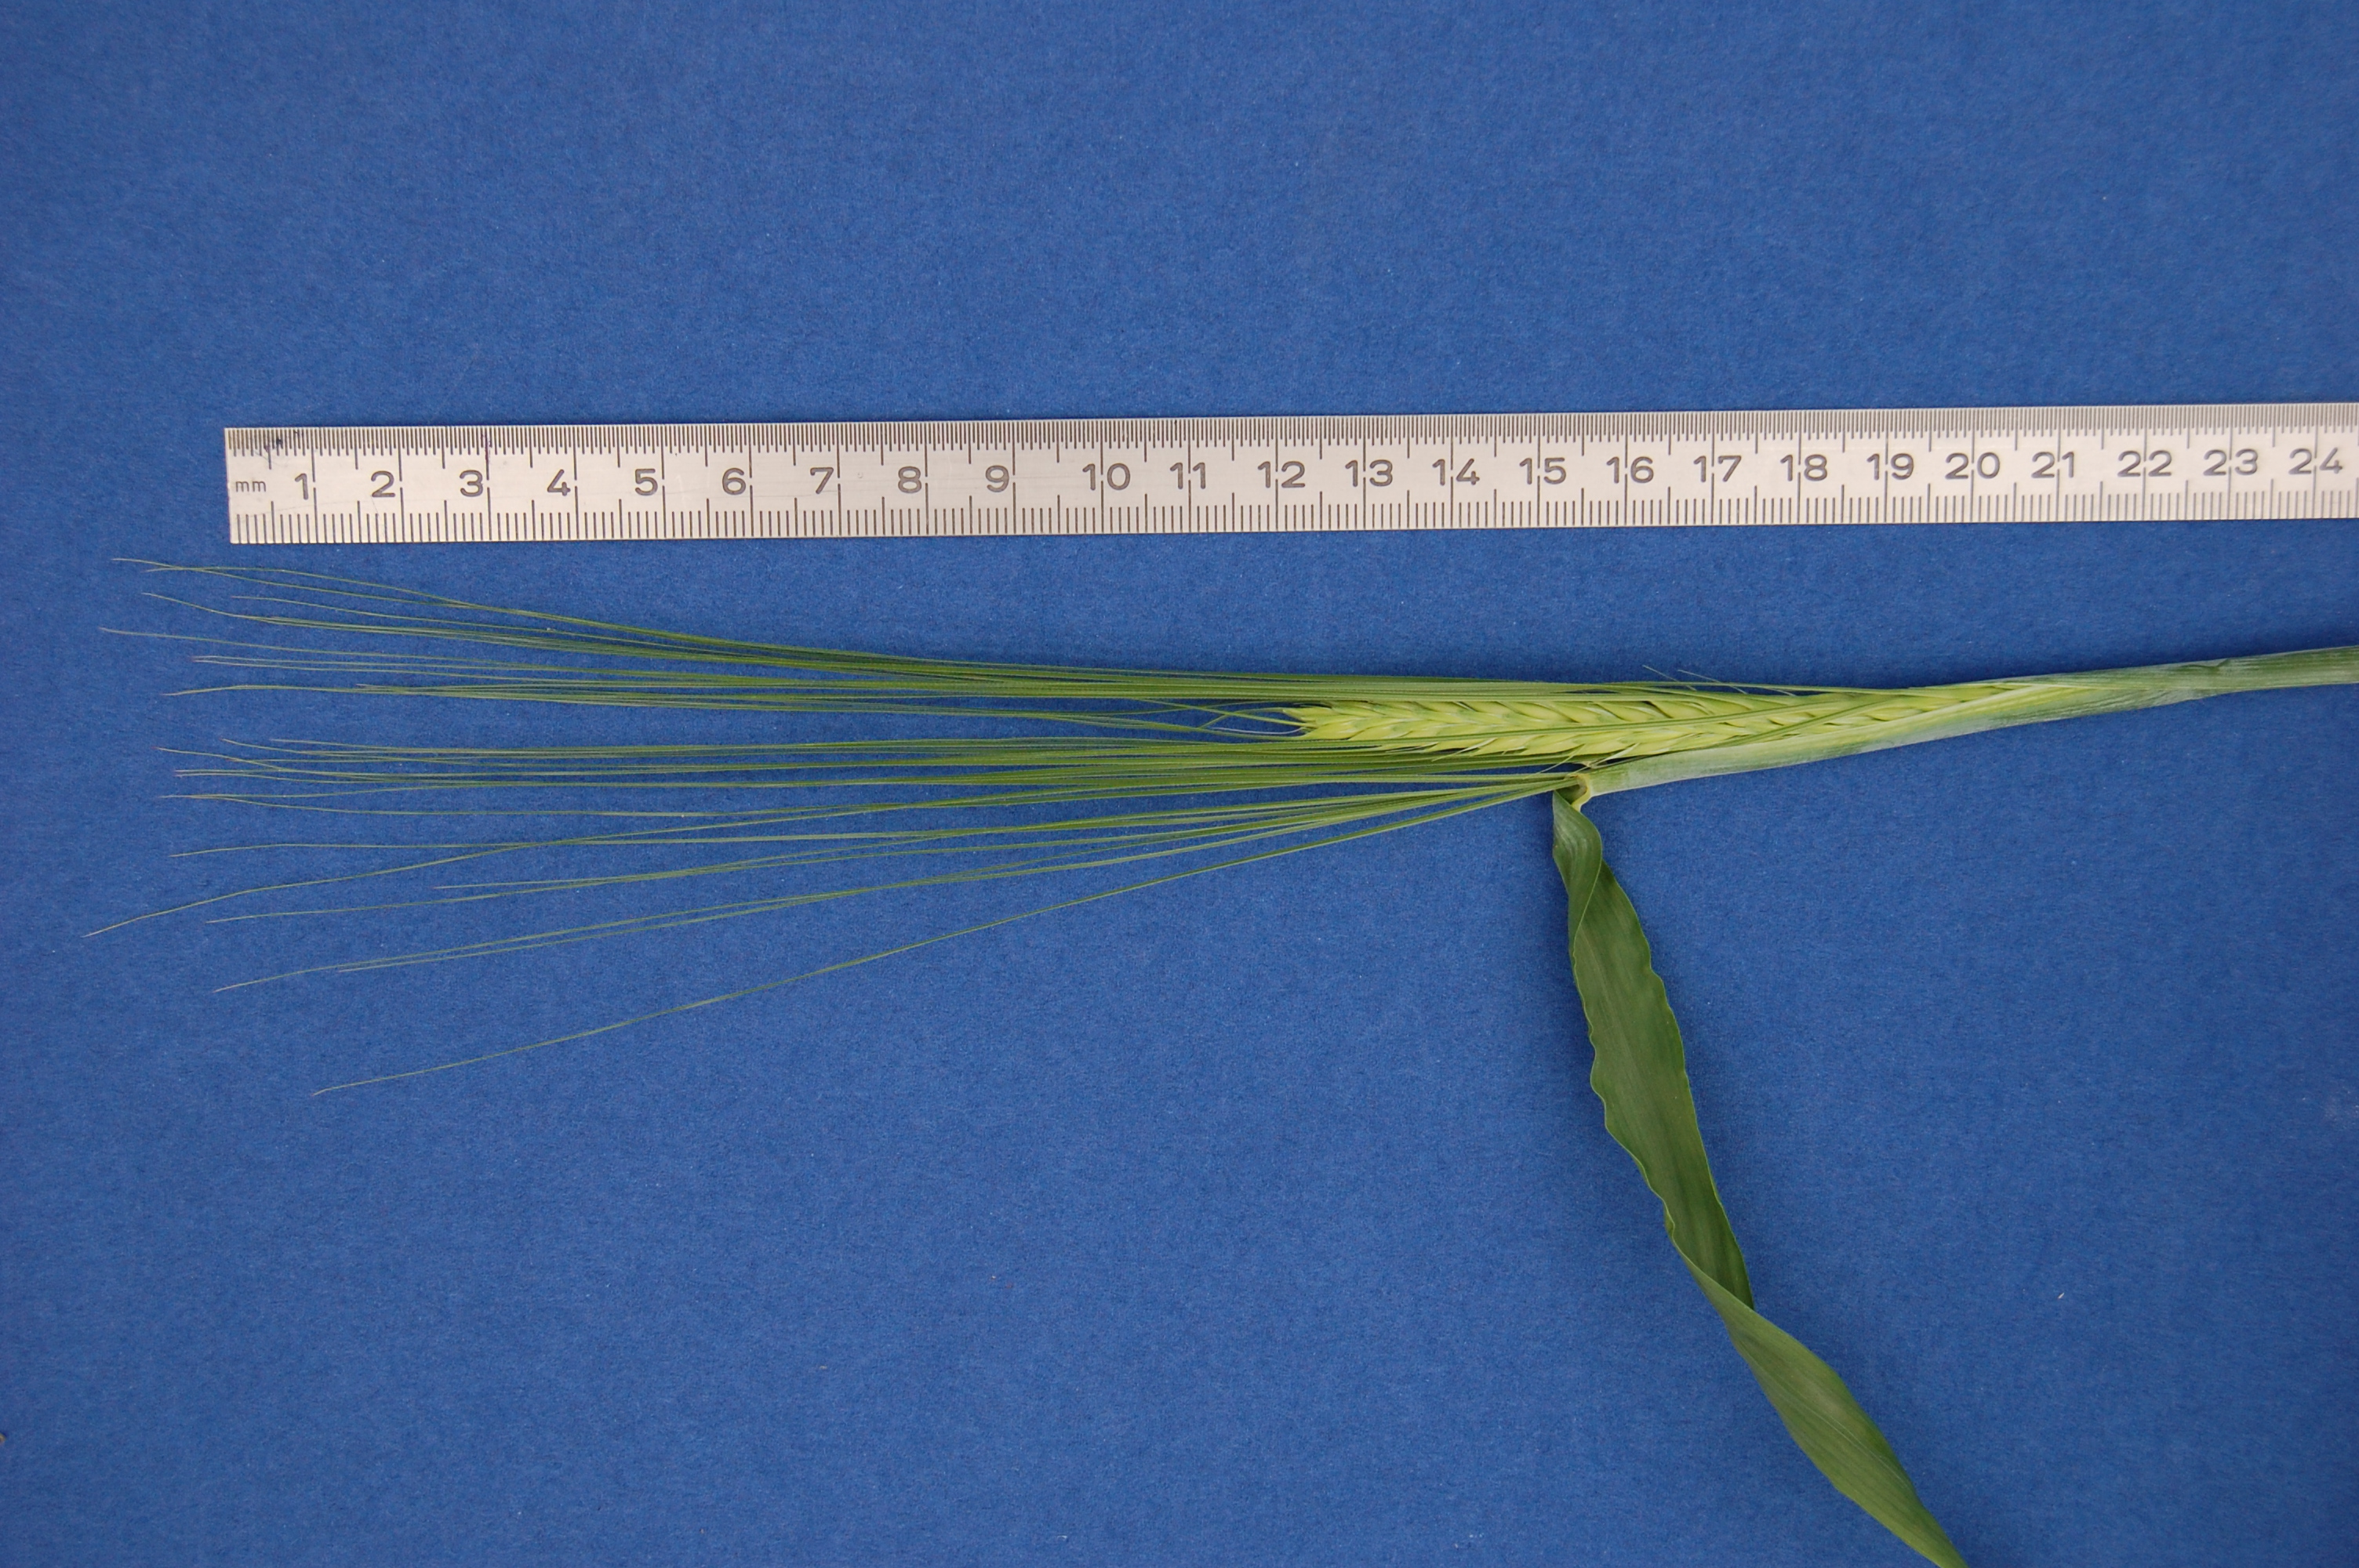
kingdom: Plantae
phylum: Tracheophyta
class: Liliopsida
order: Poales
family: Poaceae
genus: Hordeum
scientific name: Hordeum vulgare
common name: Common barley
